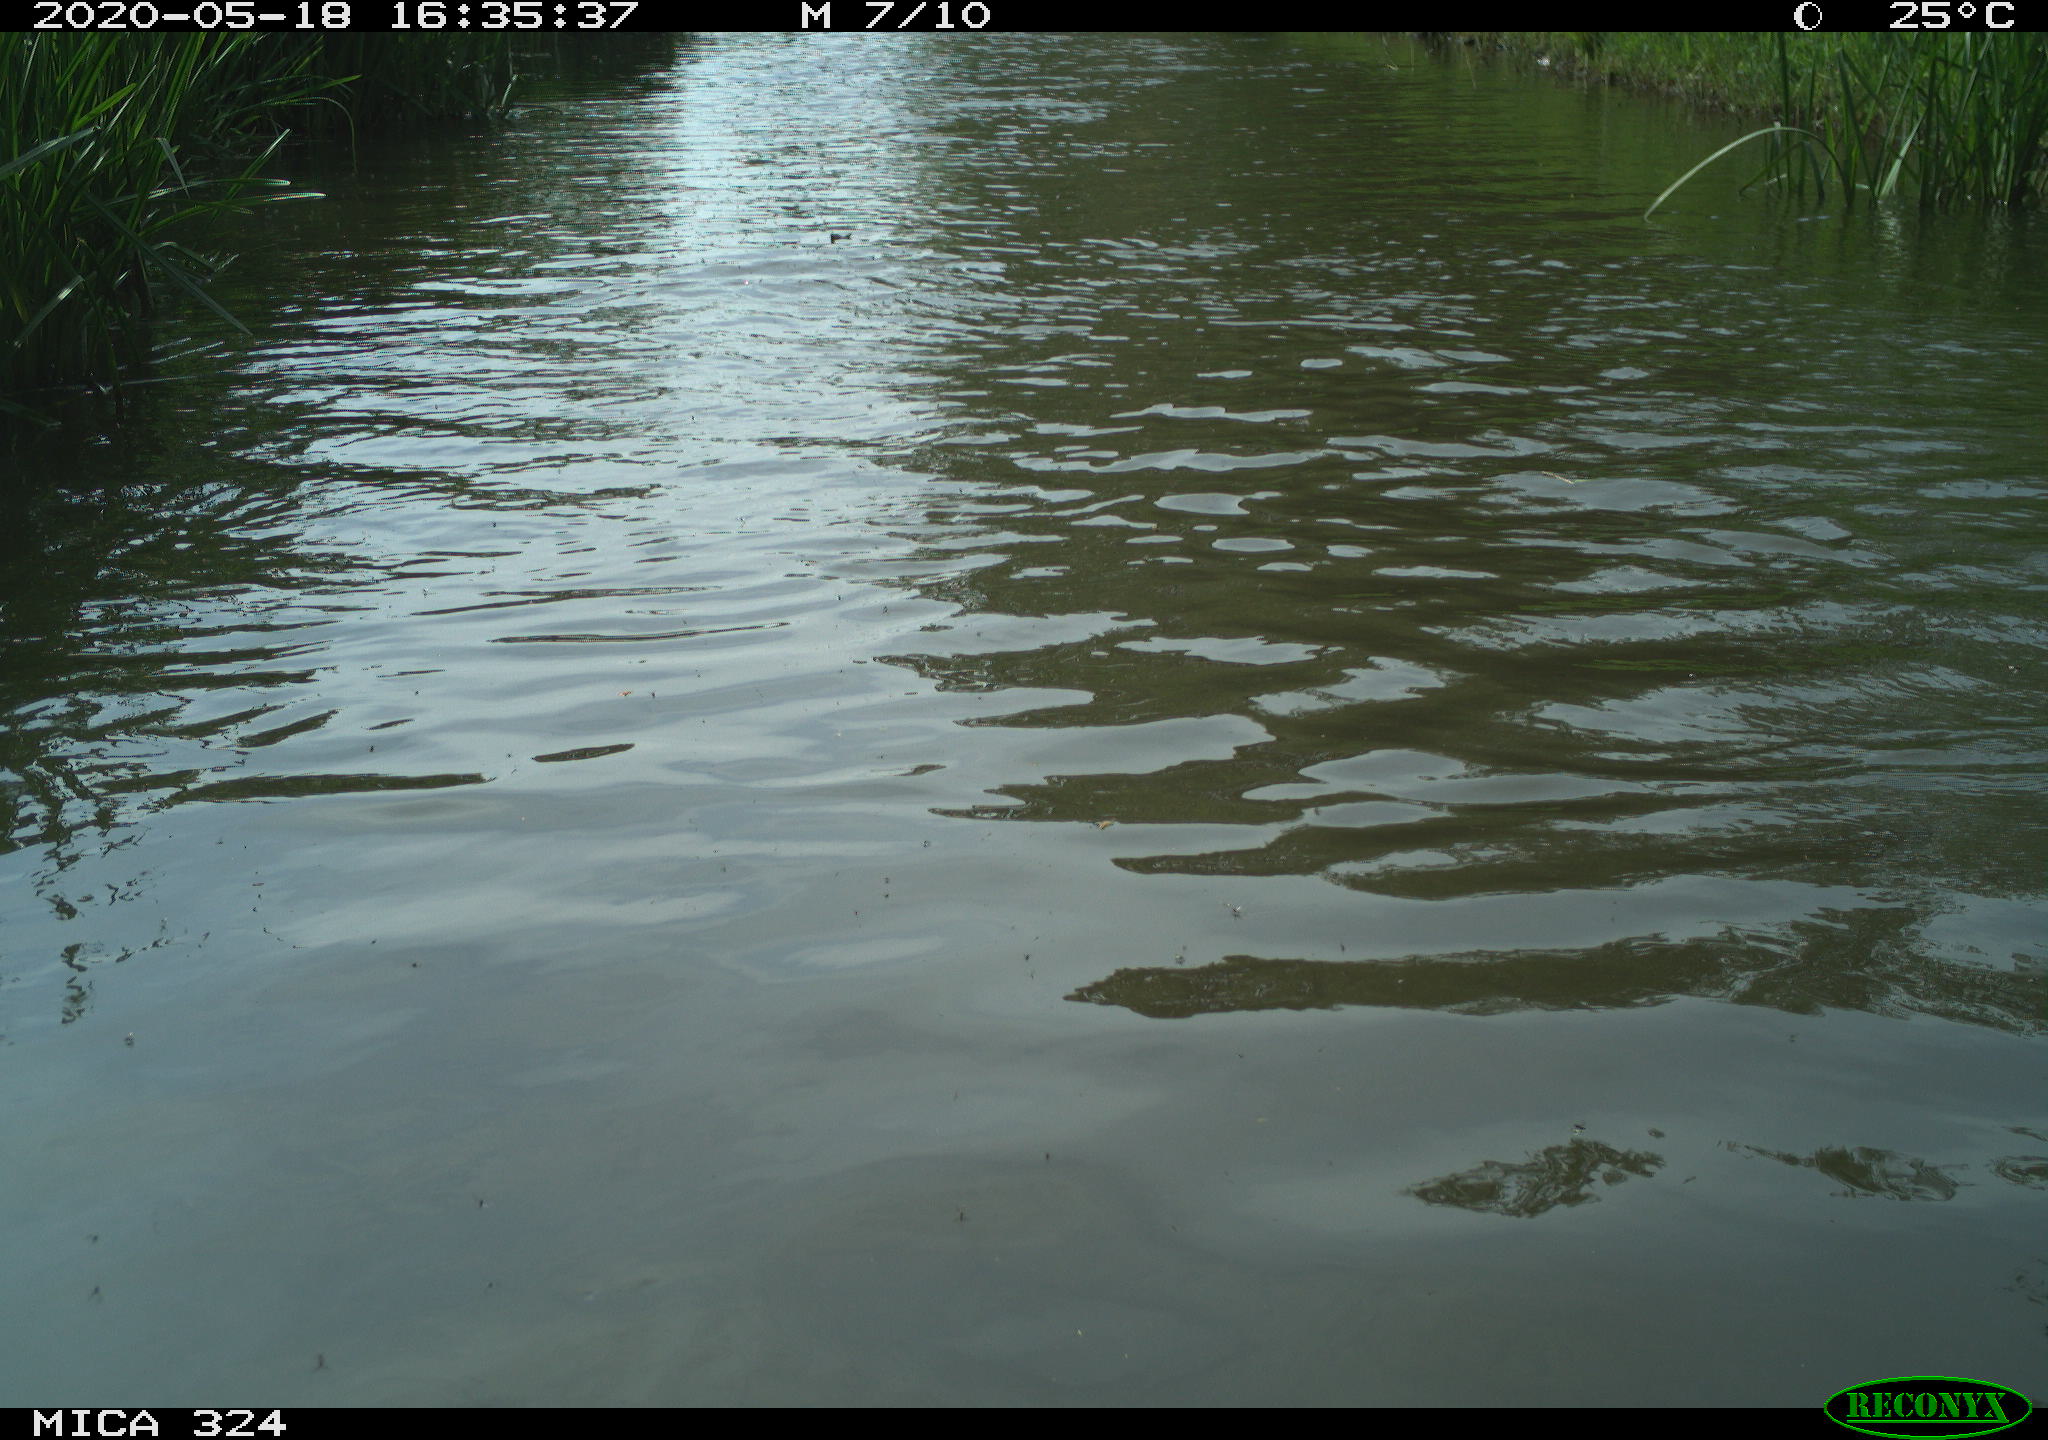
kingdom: Animalia
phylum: Chordata
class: Aves
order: Gruiformes
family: Rallidae
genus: Fulica
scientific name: Fulica atra
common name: Eurasian coot
